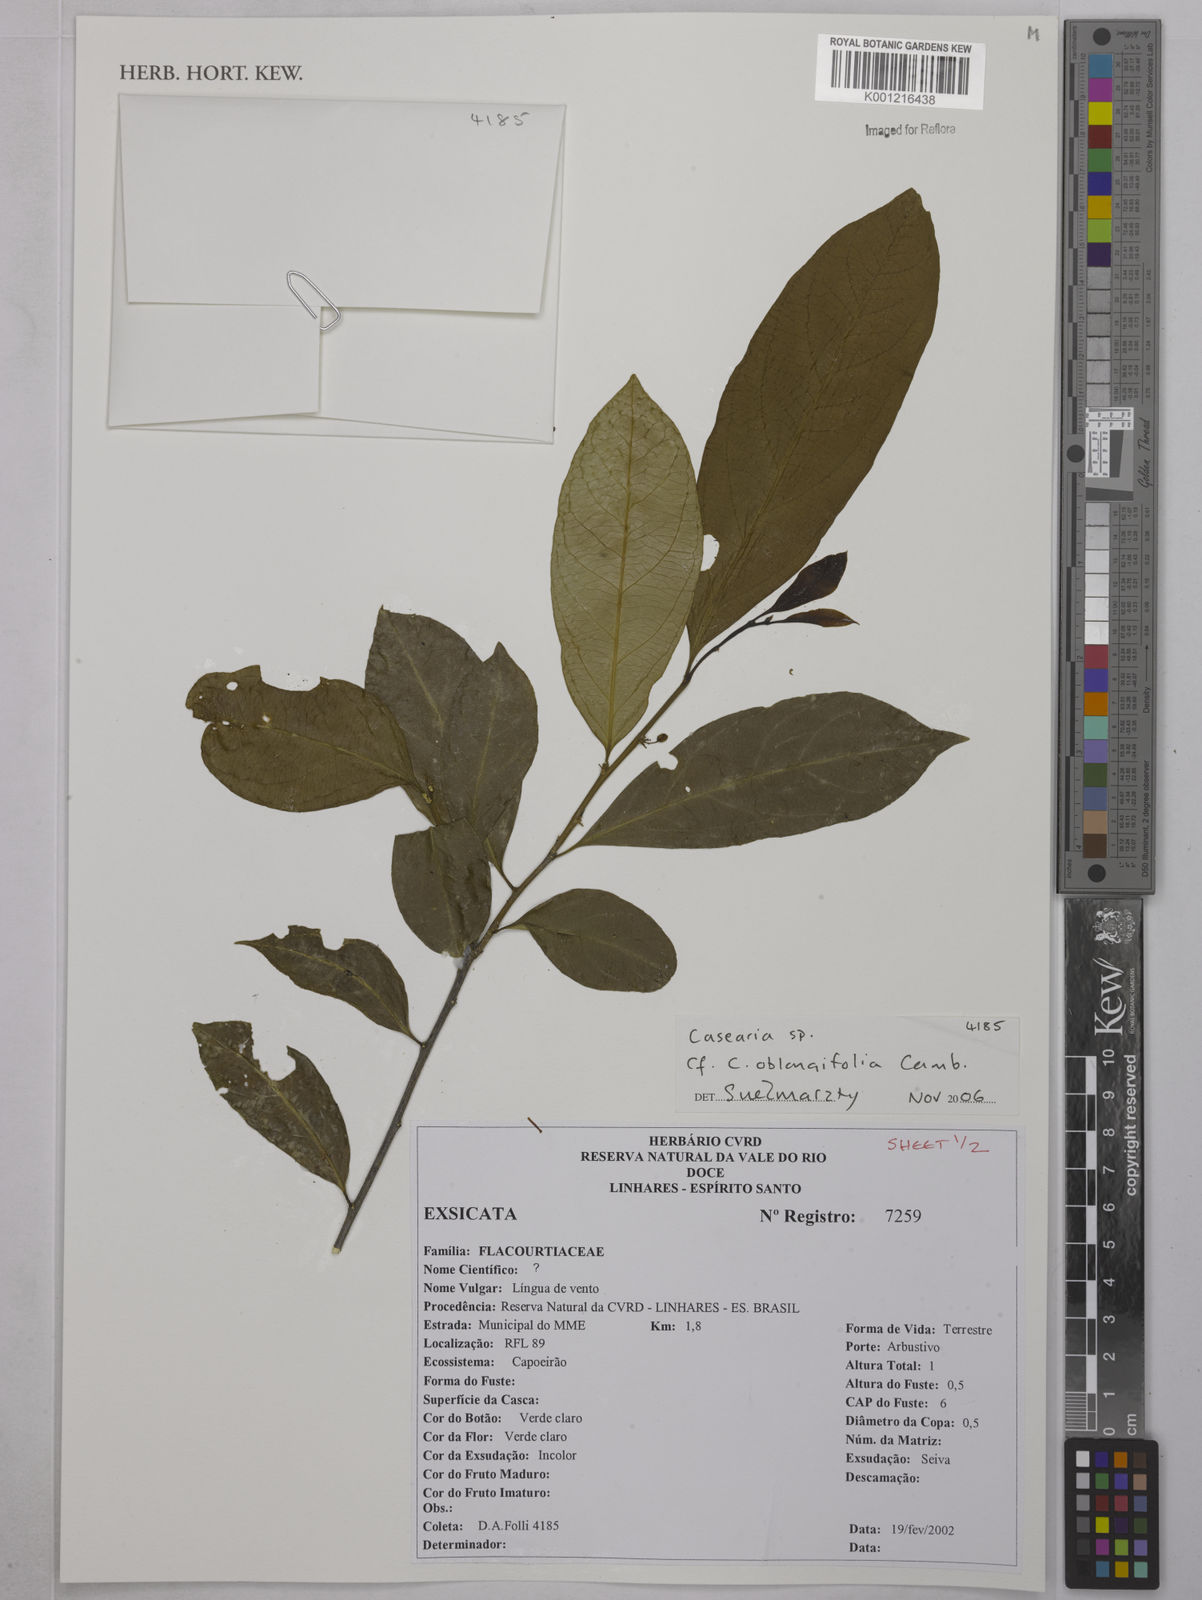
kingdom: Plantae
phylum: Tracheophyta
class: Magnoliopsida
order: Malpighiales
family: Salicaceae
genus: Casearia
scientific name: Casearia oblongifolia
